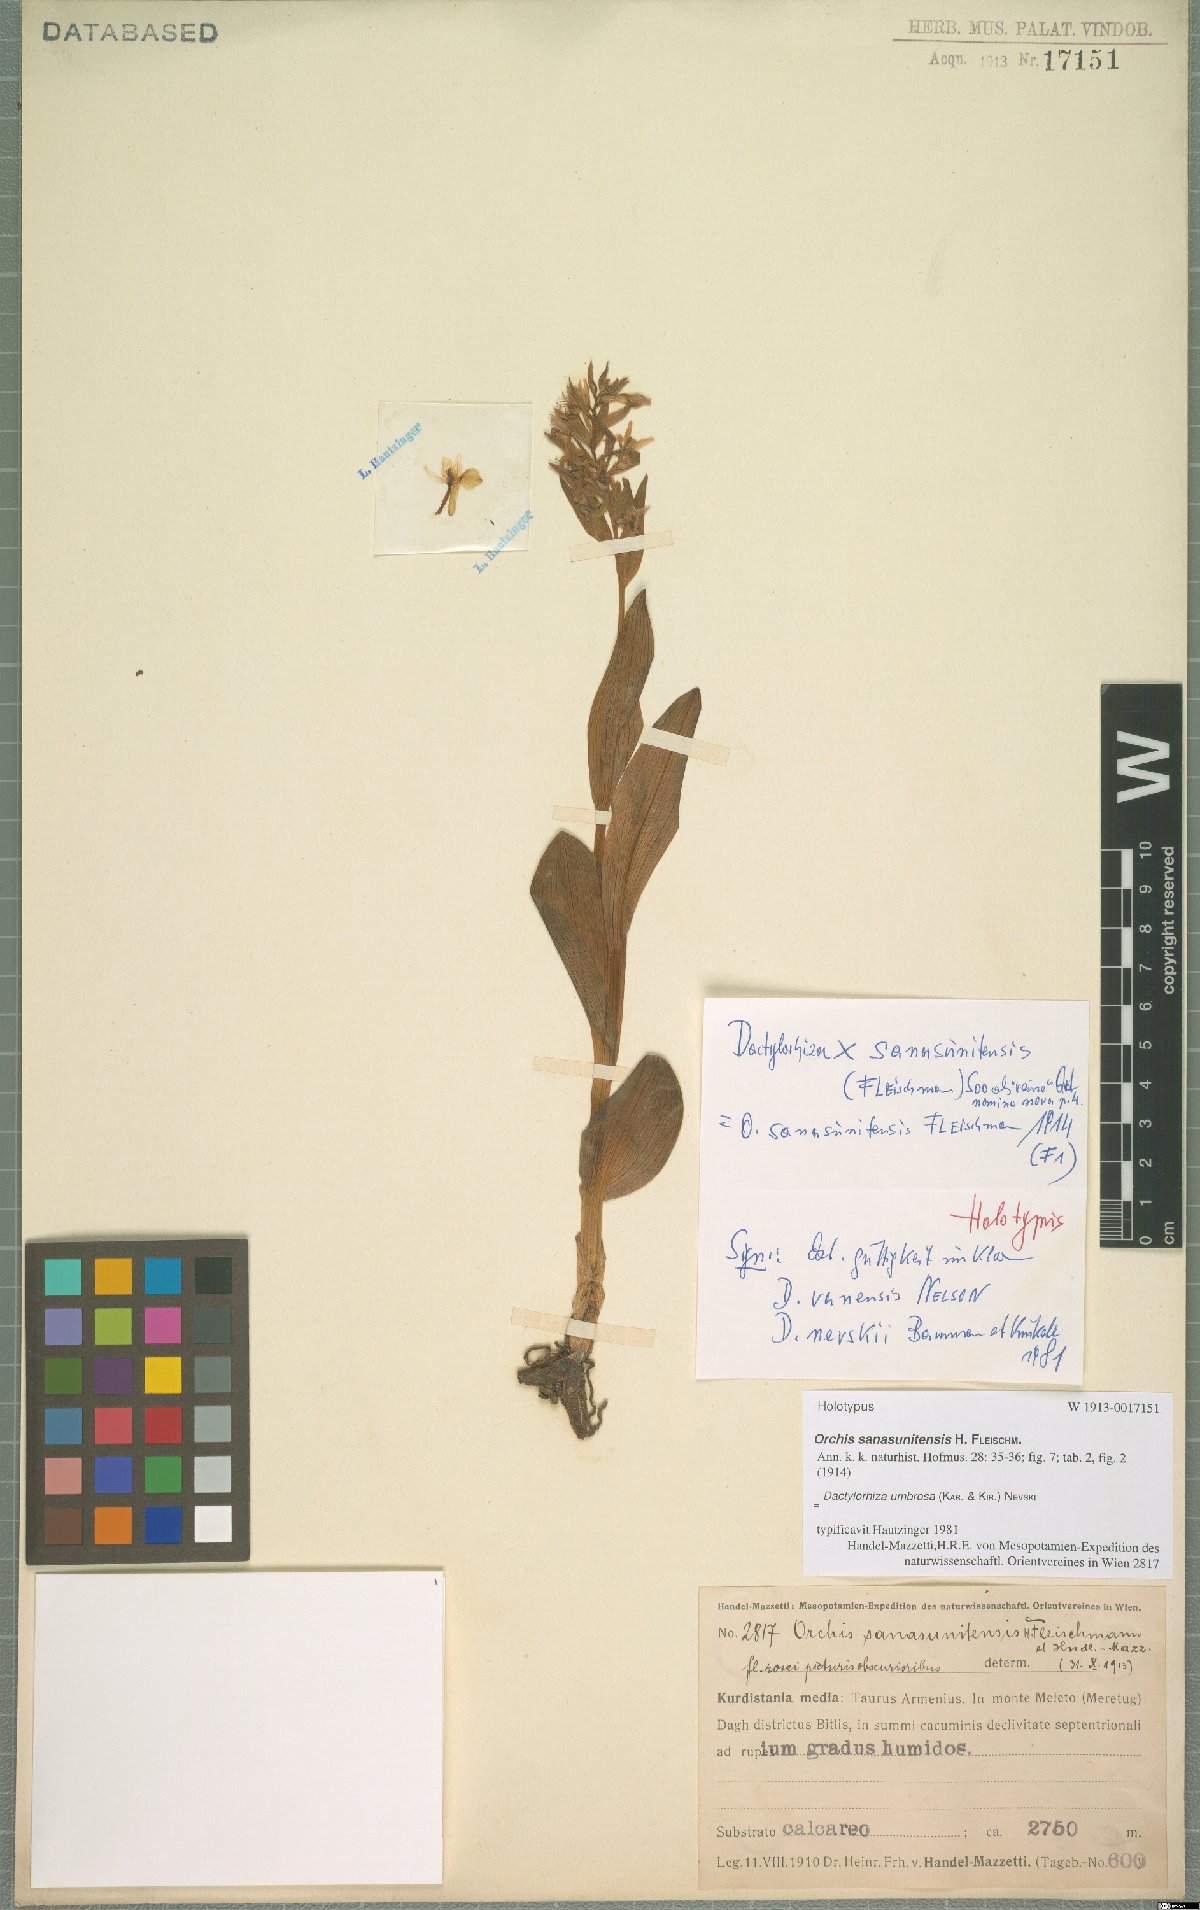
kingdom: Plantae
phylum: Tracheophyta
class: Liliopsida
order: Asparagales
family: Orchidaceae
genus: Dactylorhiza
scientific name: Dactylorhiza incarnata
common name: Early marsh-orchid
